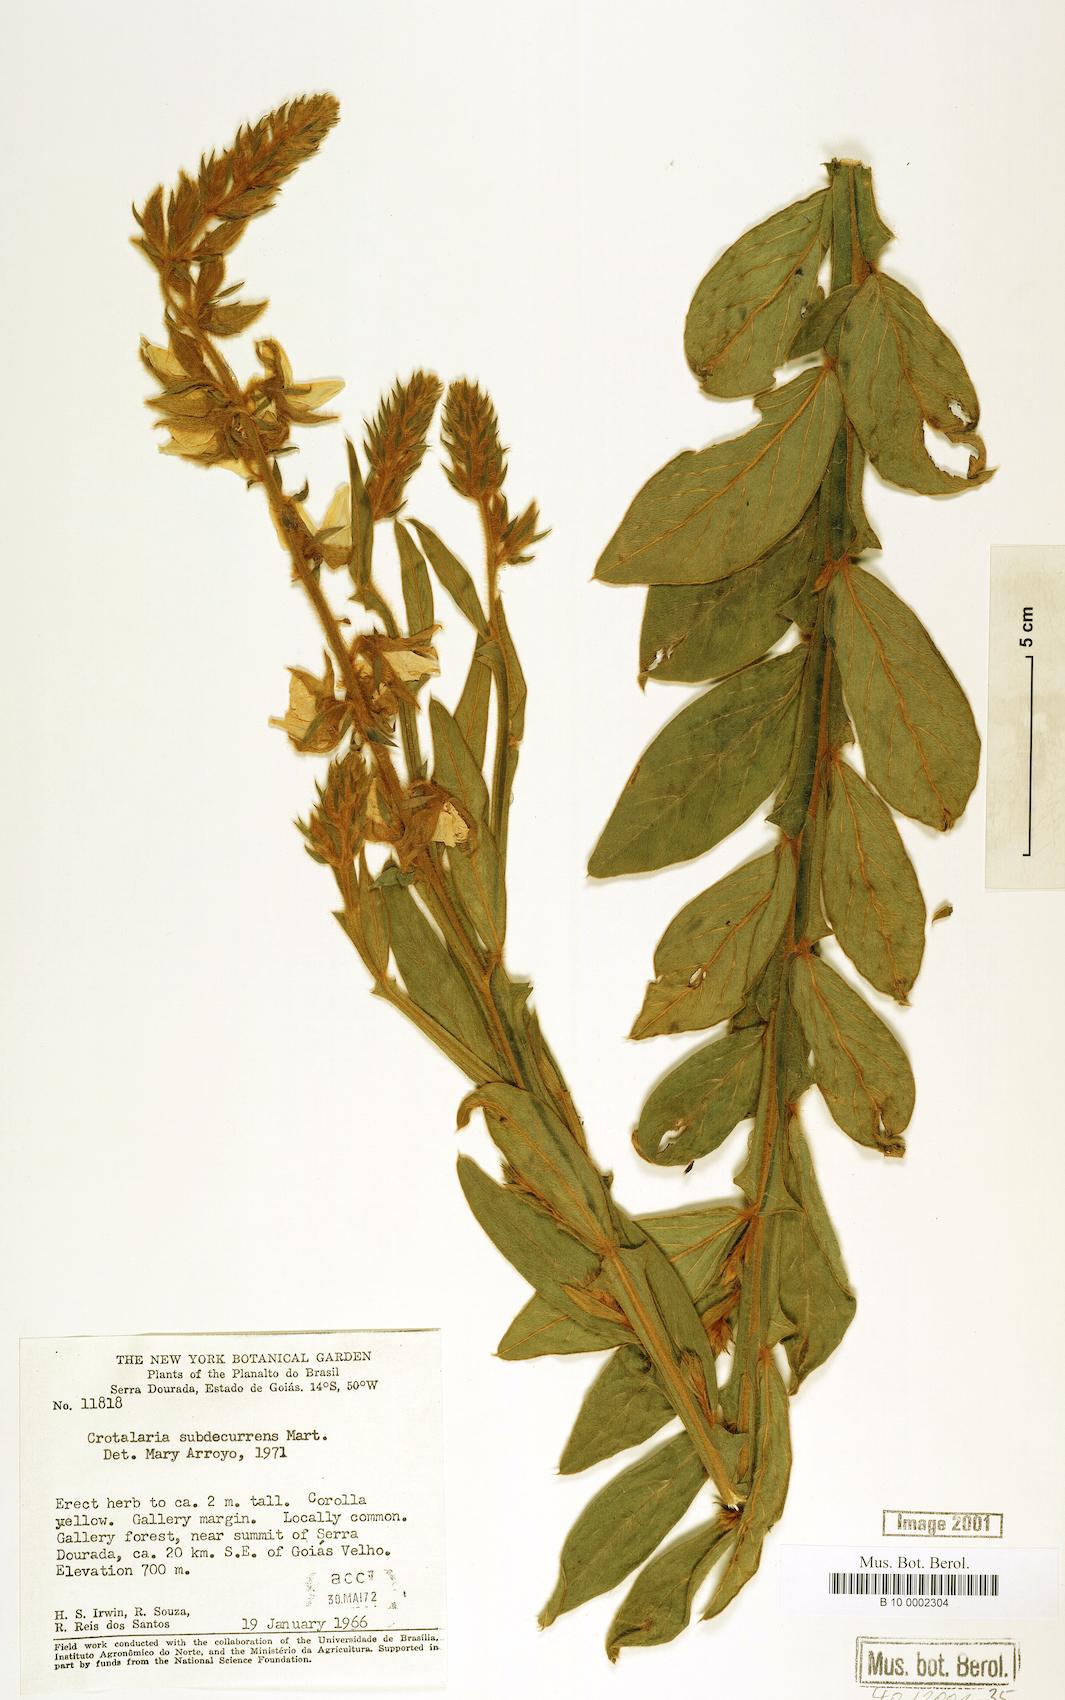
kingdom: Plantae
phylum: Tracheophyta
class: Magnoliopsida
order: Fabales
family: Fabaceae
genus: Crotalaria
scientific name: Crotalaria breviflora
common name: Short-flower crotalaria
